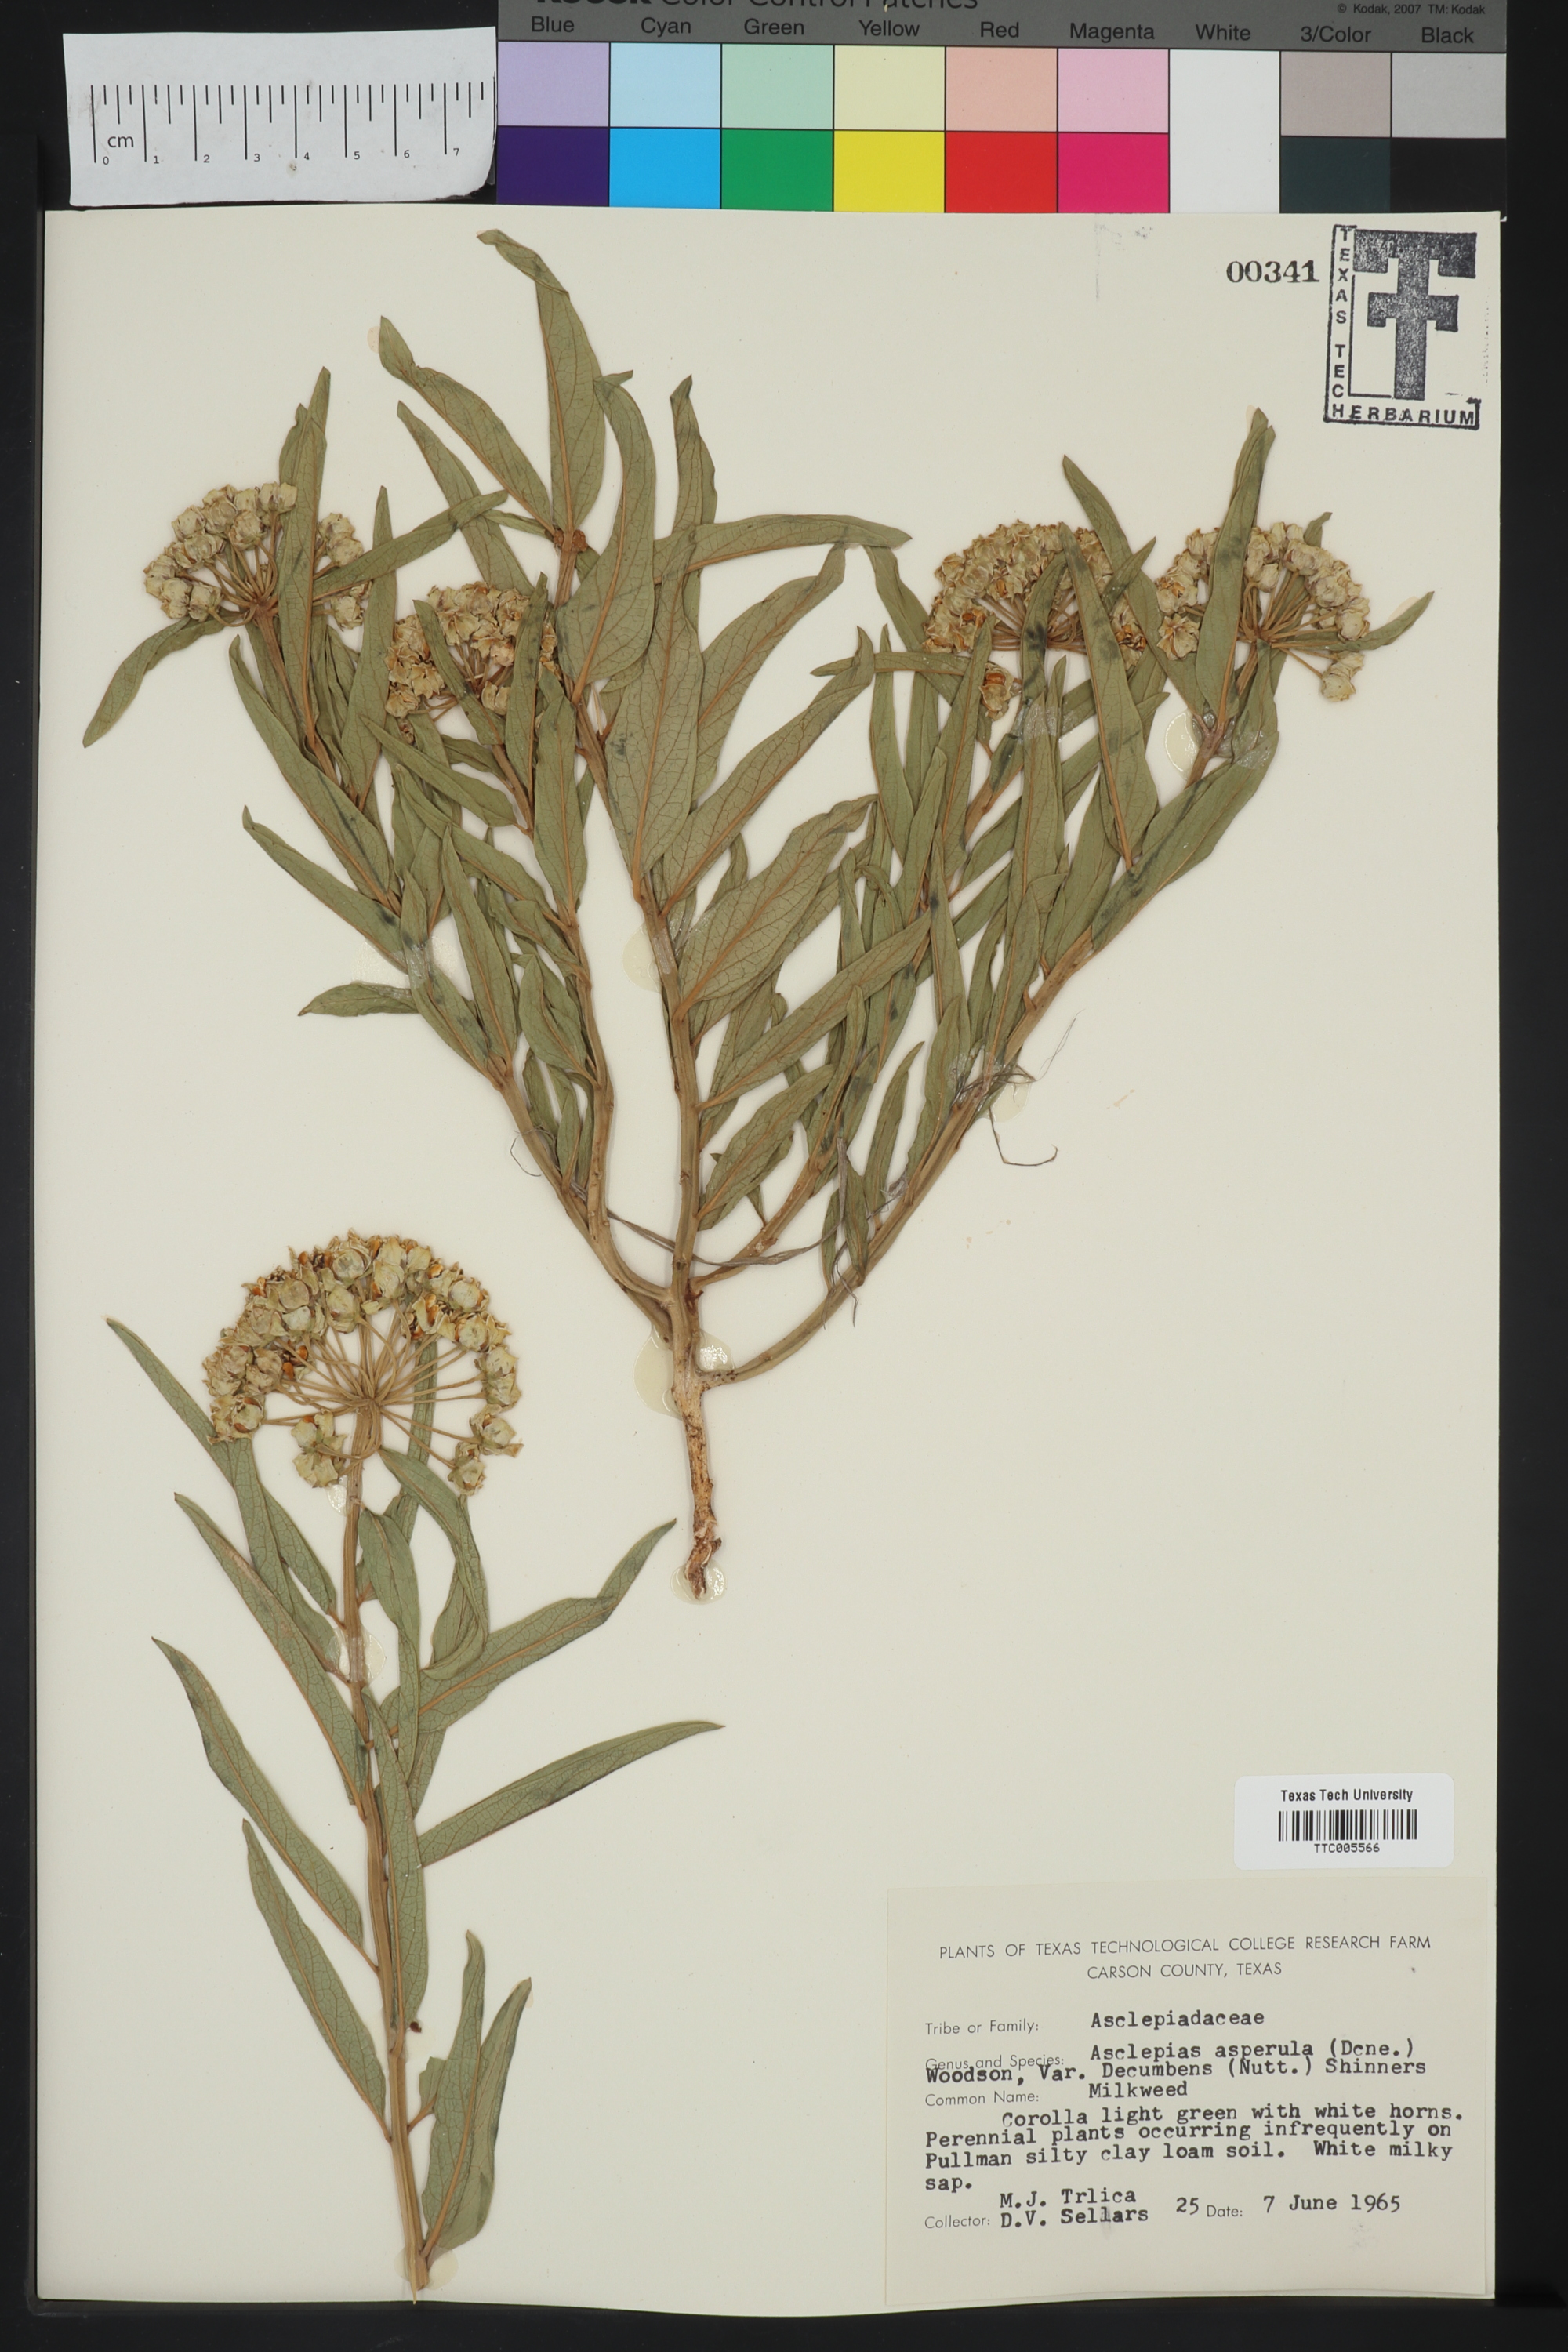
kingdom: Plantae
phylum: Tracheophyta
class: Magnoliopsida
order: Gentianales
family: Apocynaceae
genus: Asclepias
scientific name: Asclepias asperula
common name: Antelope horns
